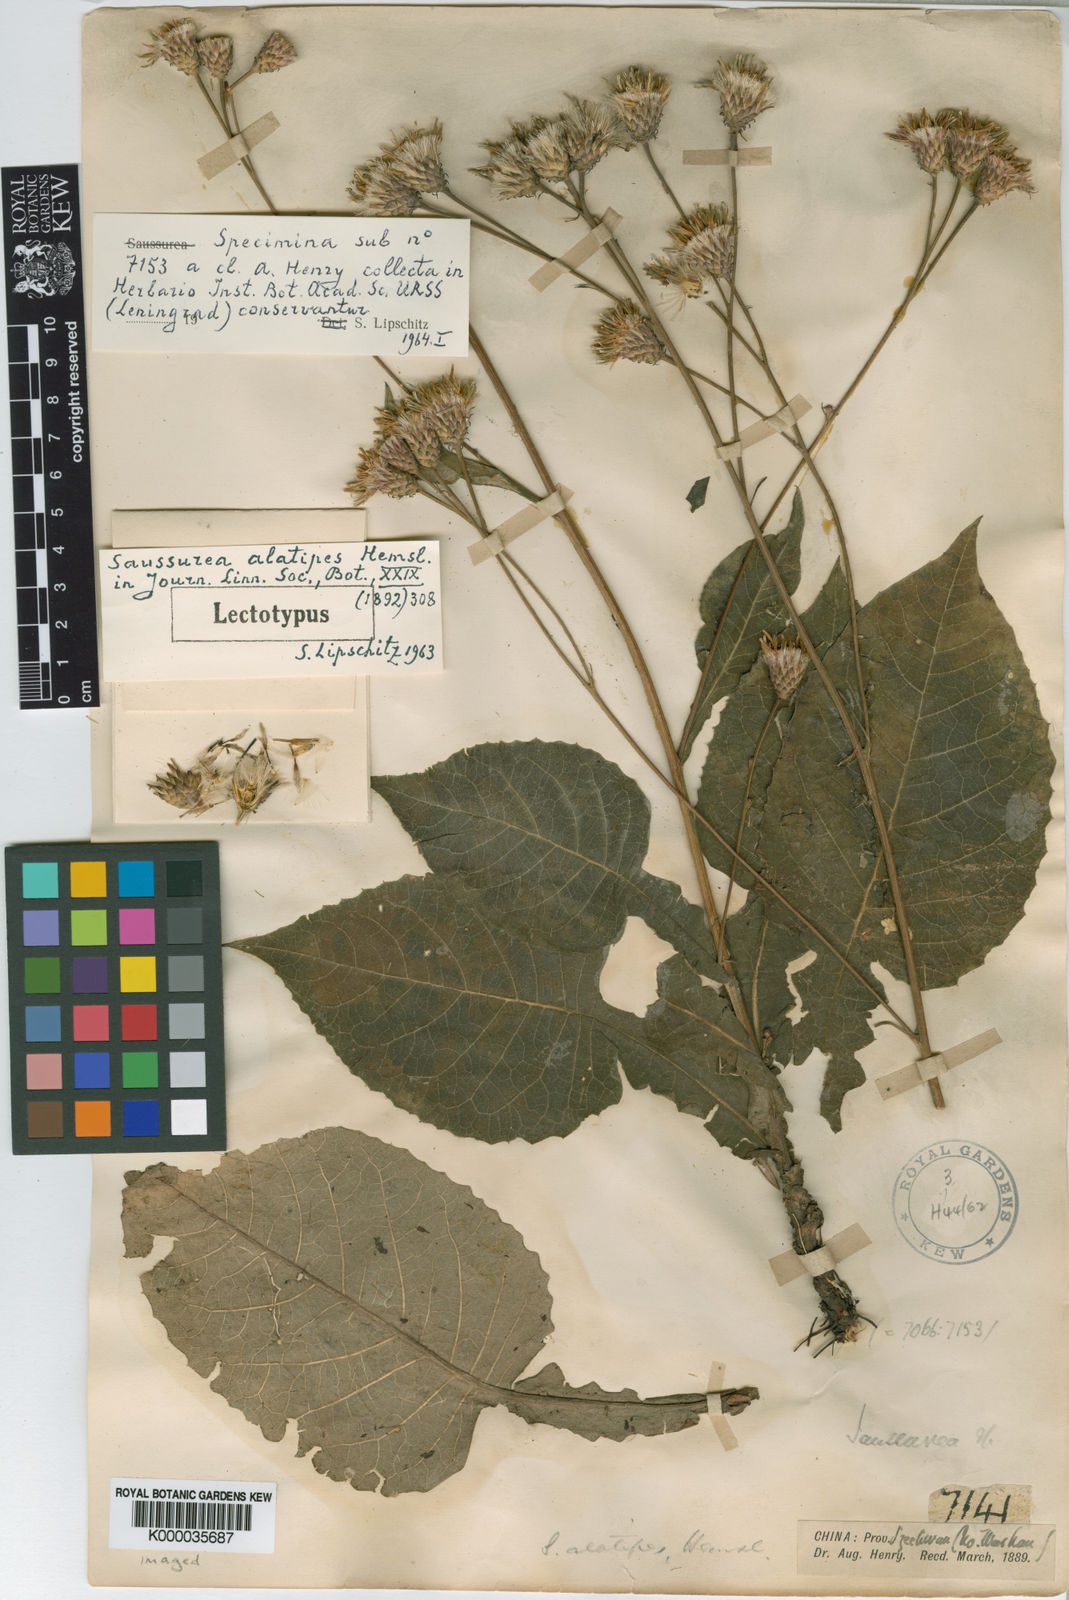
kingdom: Plantae
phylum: Tracheophyta
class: Magnoliopsida
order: Asterales
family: Asteraceae
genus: Saussurea
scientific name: Saussurea alatipes
